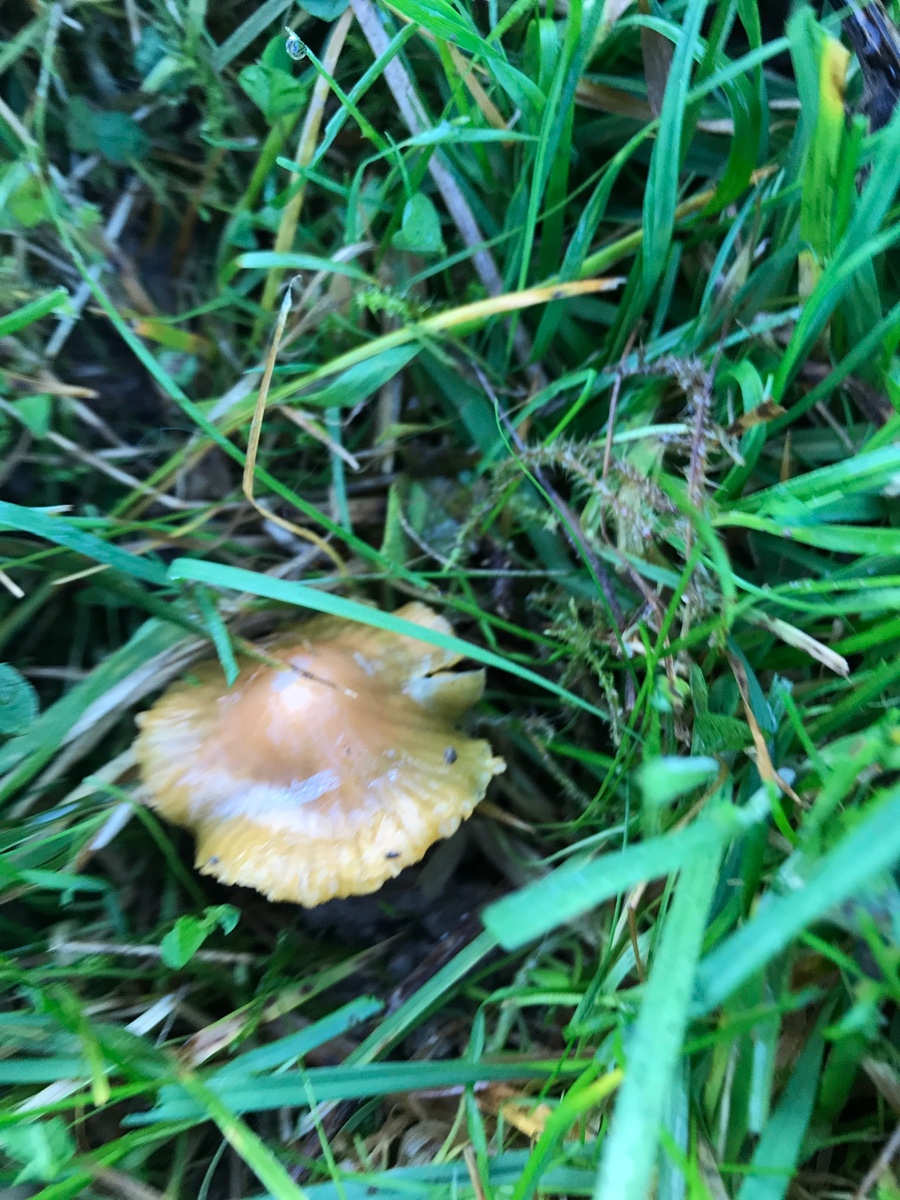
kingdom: Fungi
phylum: Basidiomycota
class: Agaricomycetes
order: Agaricales
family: Hygrophoraceae
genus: Gliophorus
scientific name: Gliophorus psittacinus
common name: papegøje-vokshat
